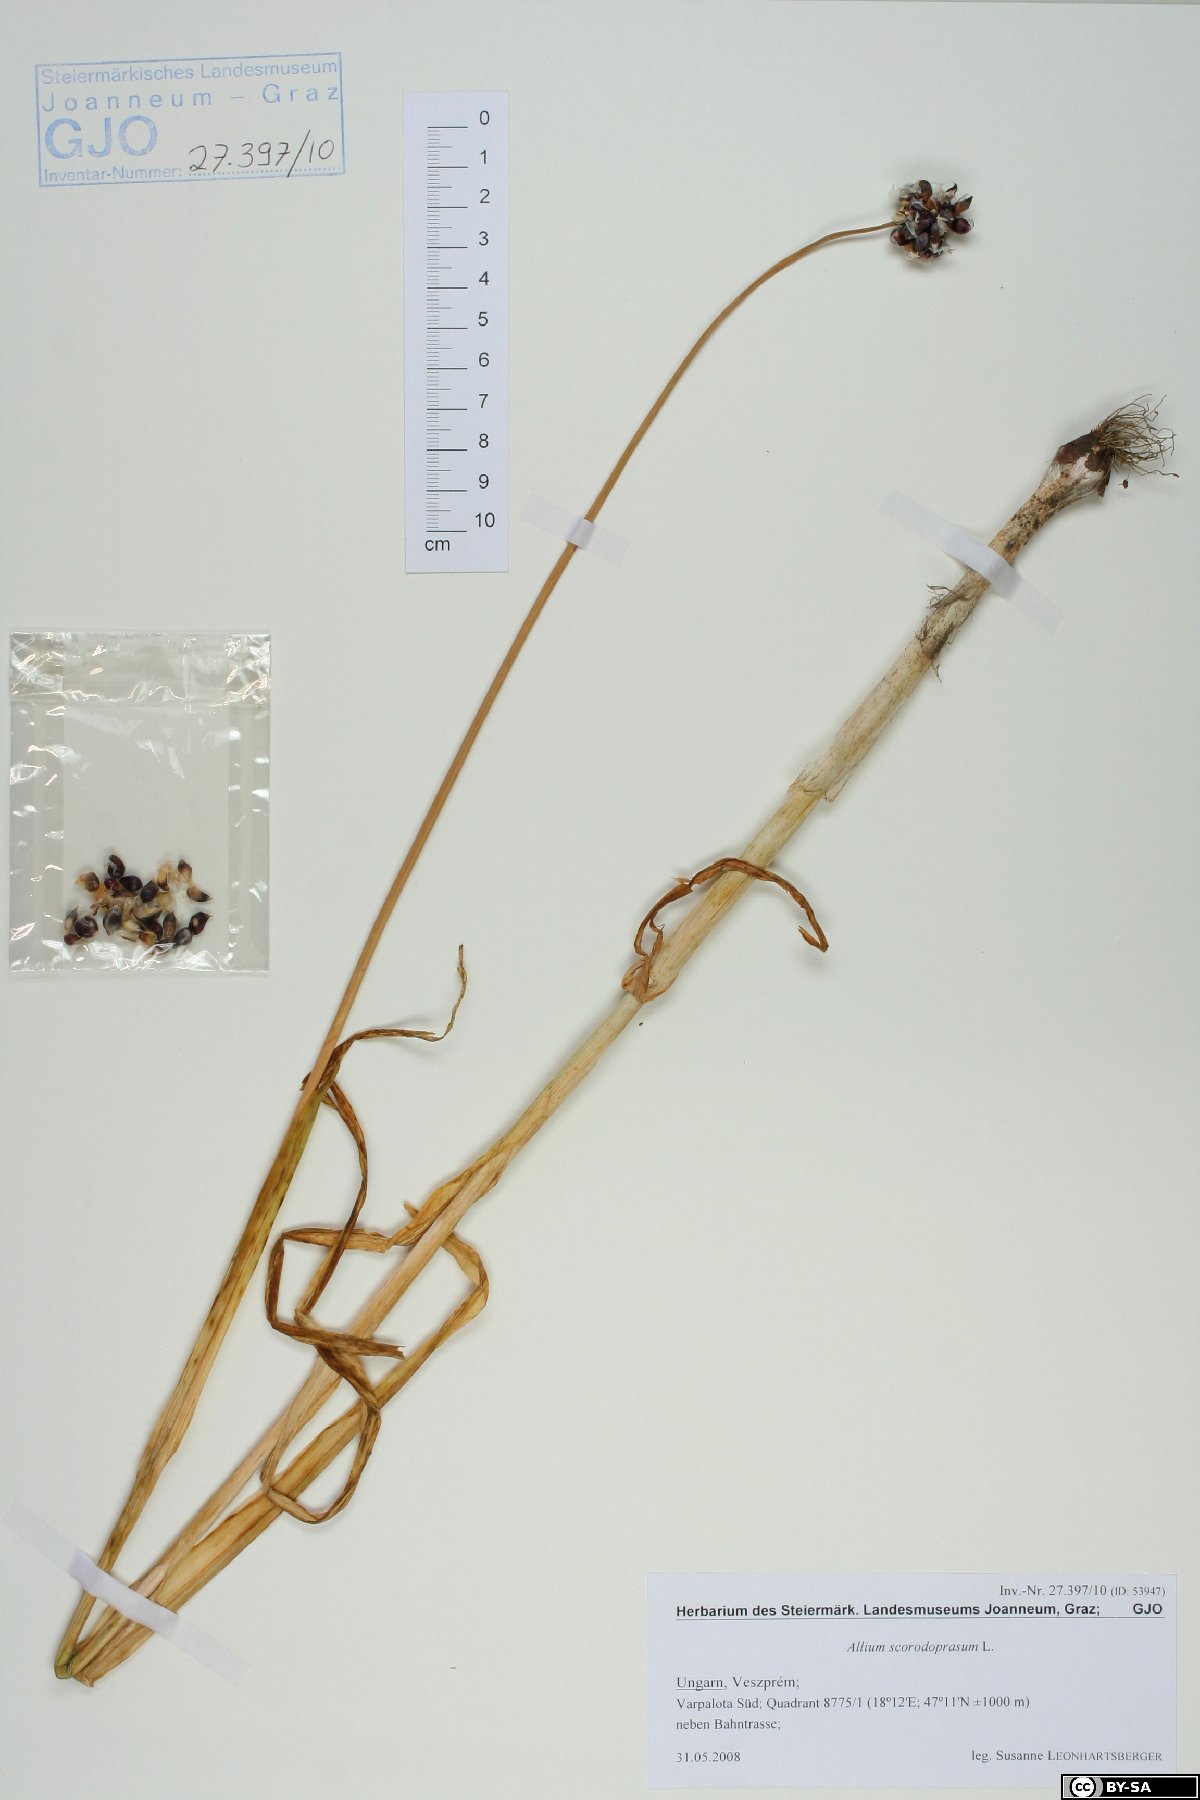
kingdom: Plantae
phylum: Tracheophyta
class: Liliopsida
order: Asparagales
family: Amaryllidaceae
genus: Allium
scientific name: Allium scorodoprasum
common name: Sand leek
